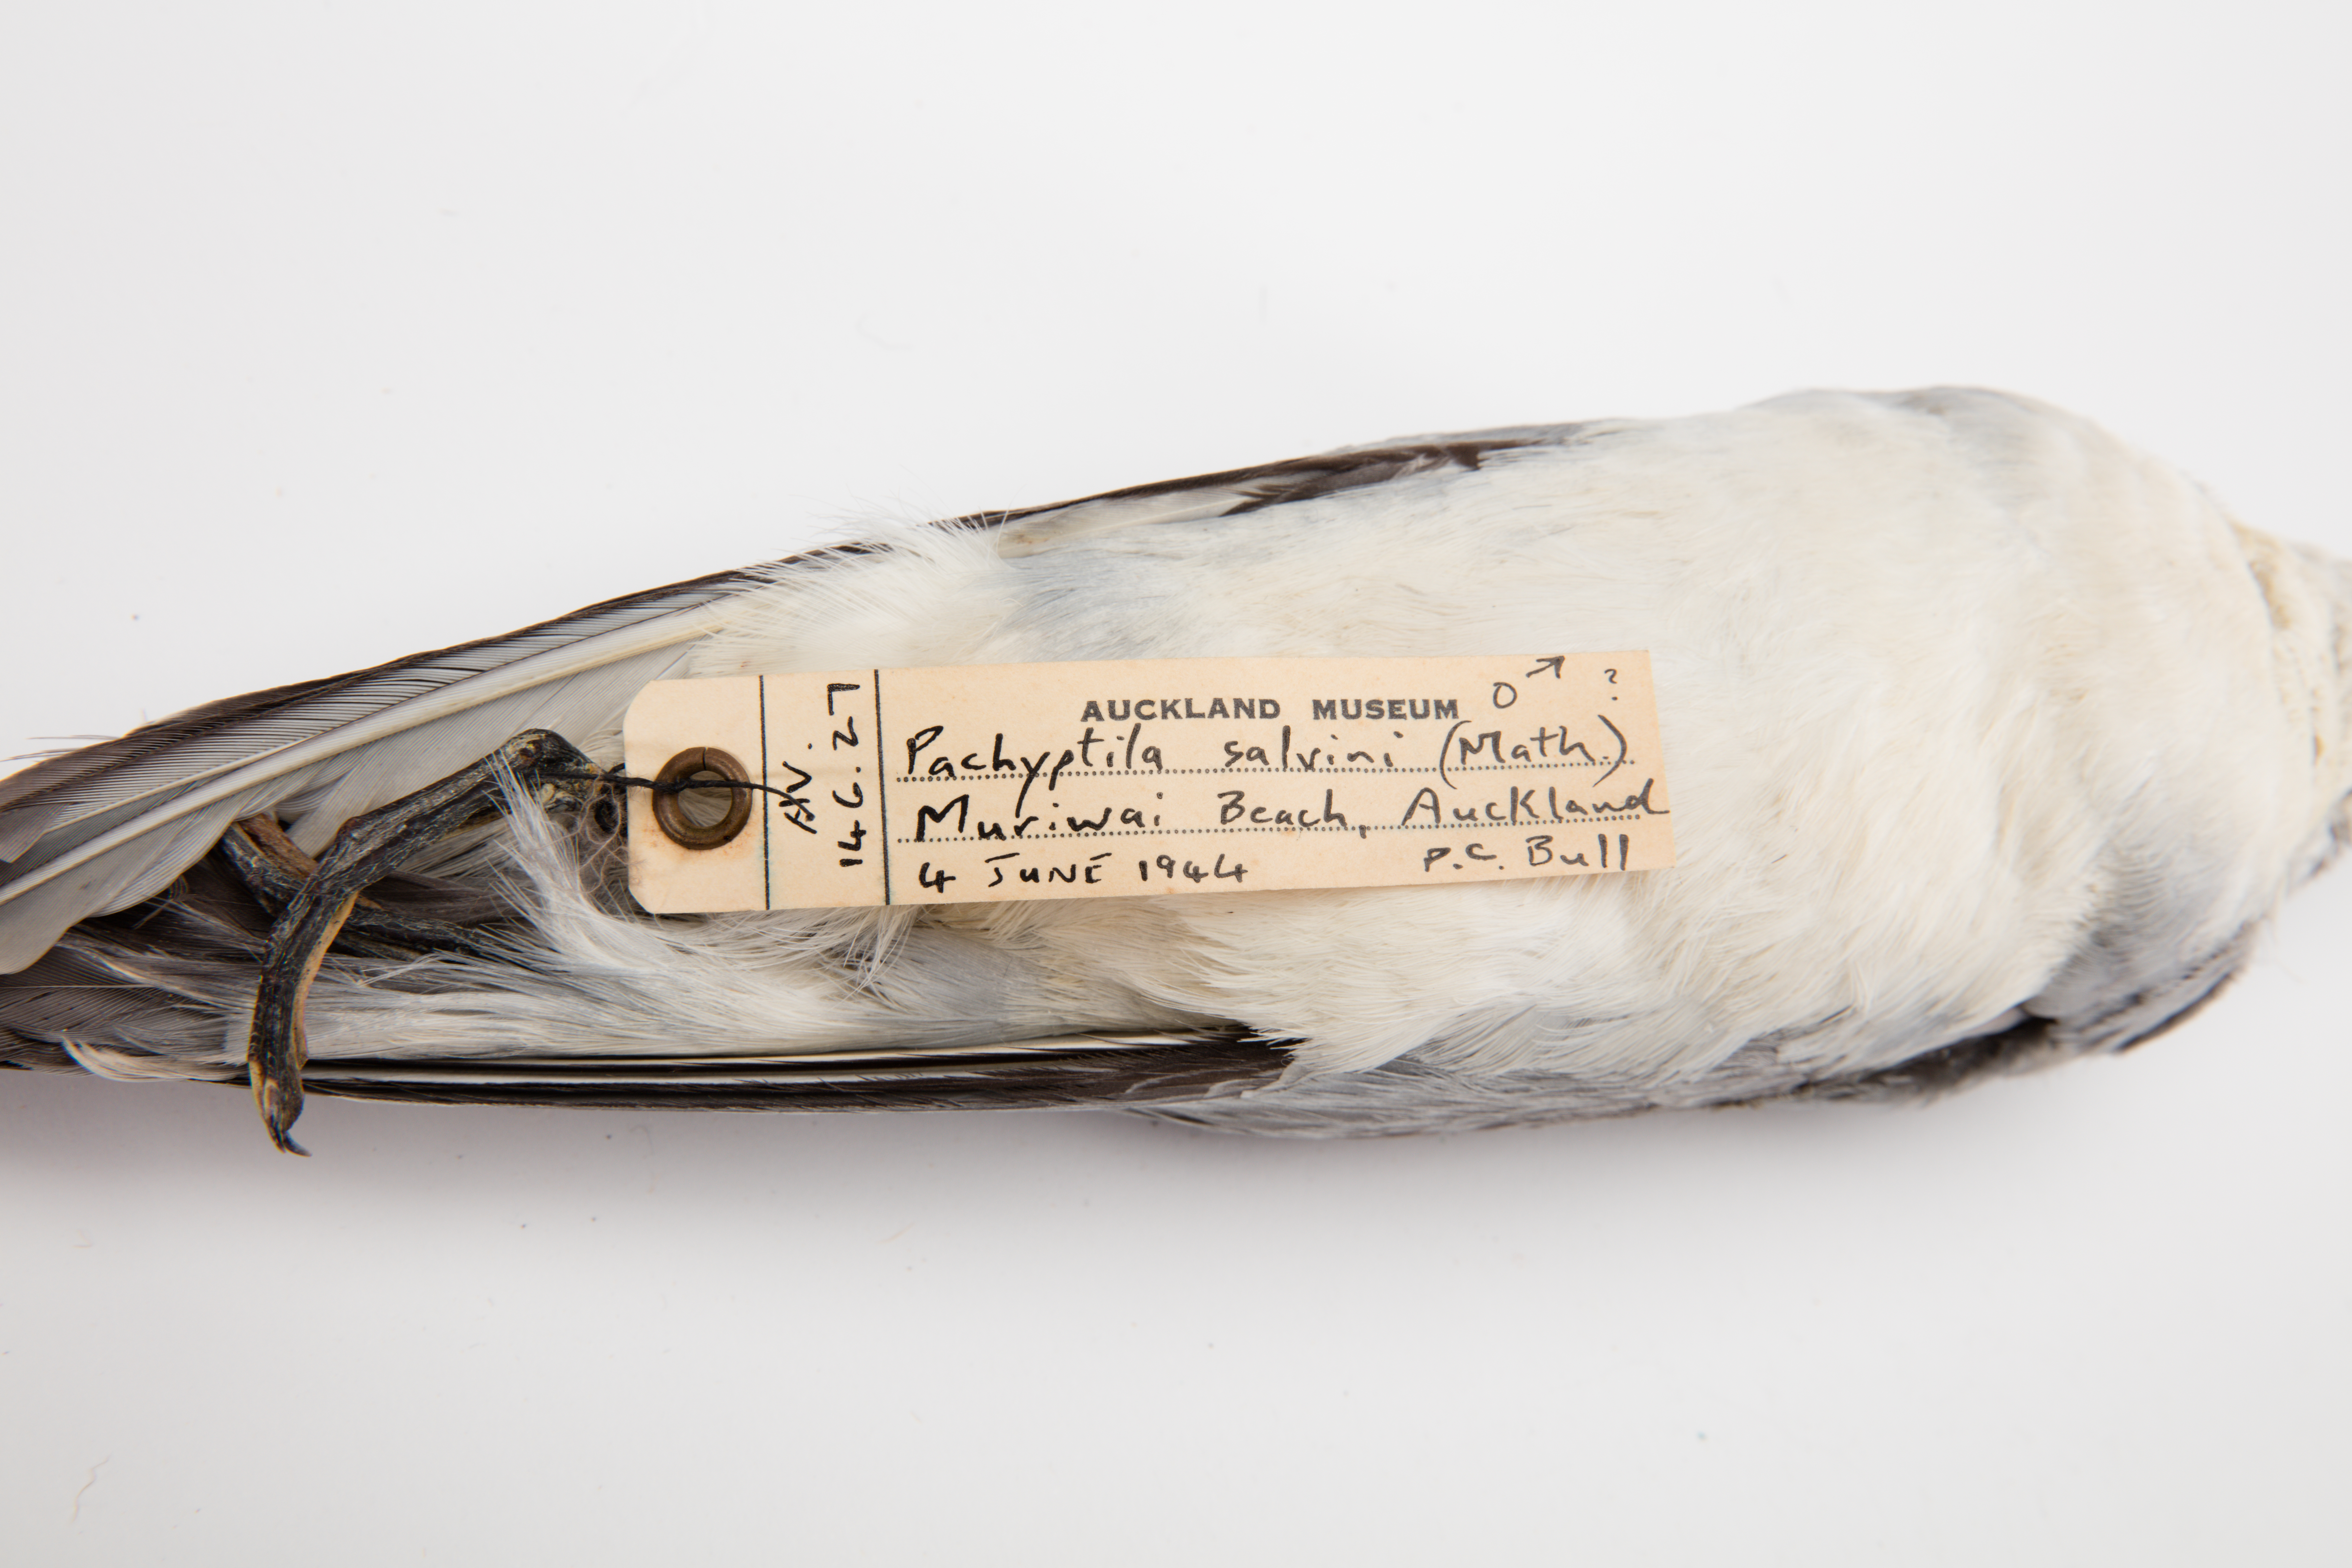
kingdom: Animalia
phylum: Chordata
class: Aves
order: Procellariiformes
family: Procellariidae
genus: Pachyptila
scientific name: Pachyptila salvini
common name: Salvin's prion
